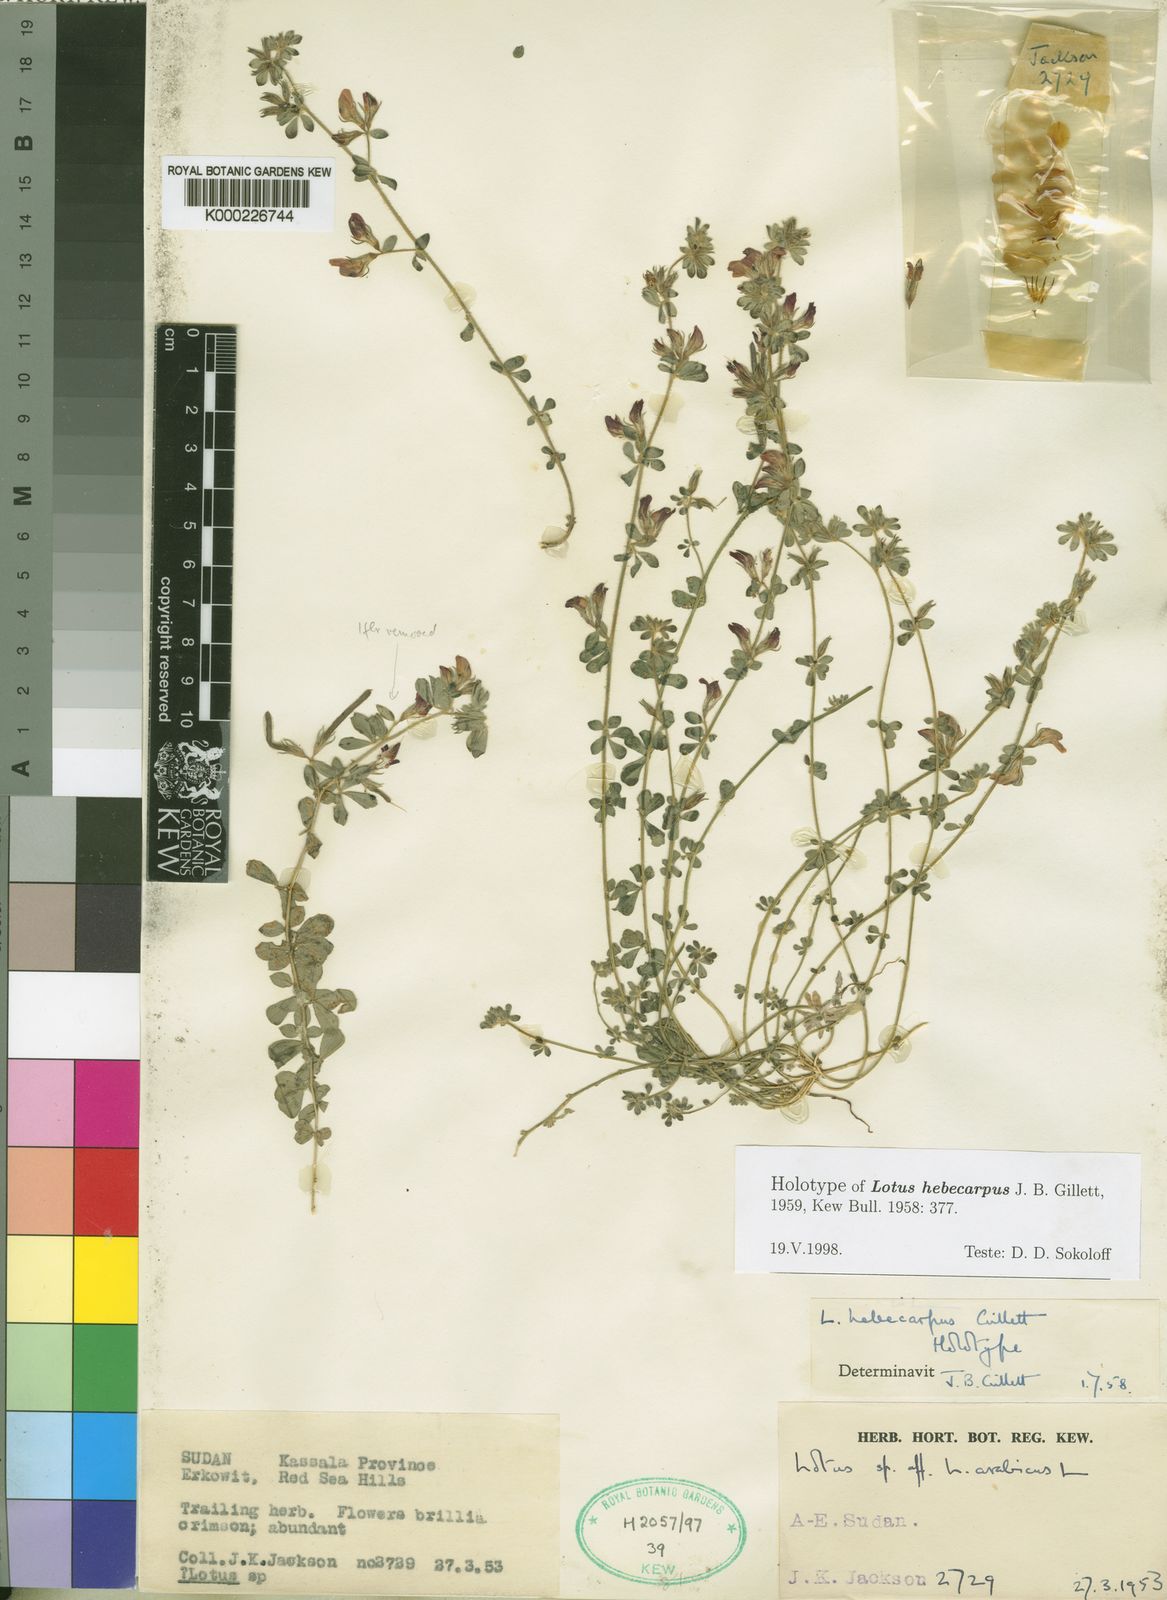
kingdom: Plantae
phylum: Tracheophyta
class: Magnoliopsida
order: Fabales
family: Fabaceae
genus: Lotus
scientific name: Lotus hebecarpus
